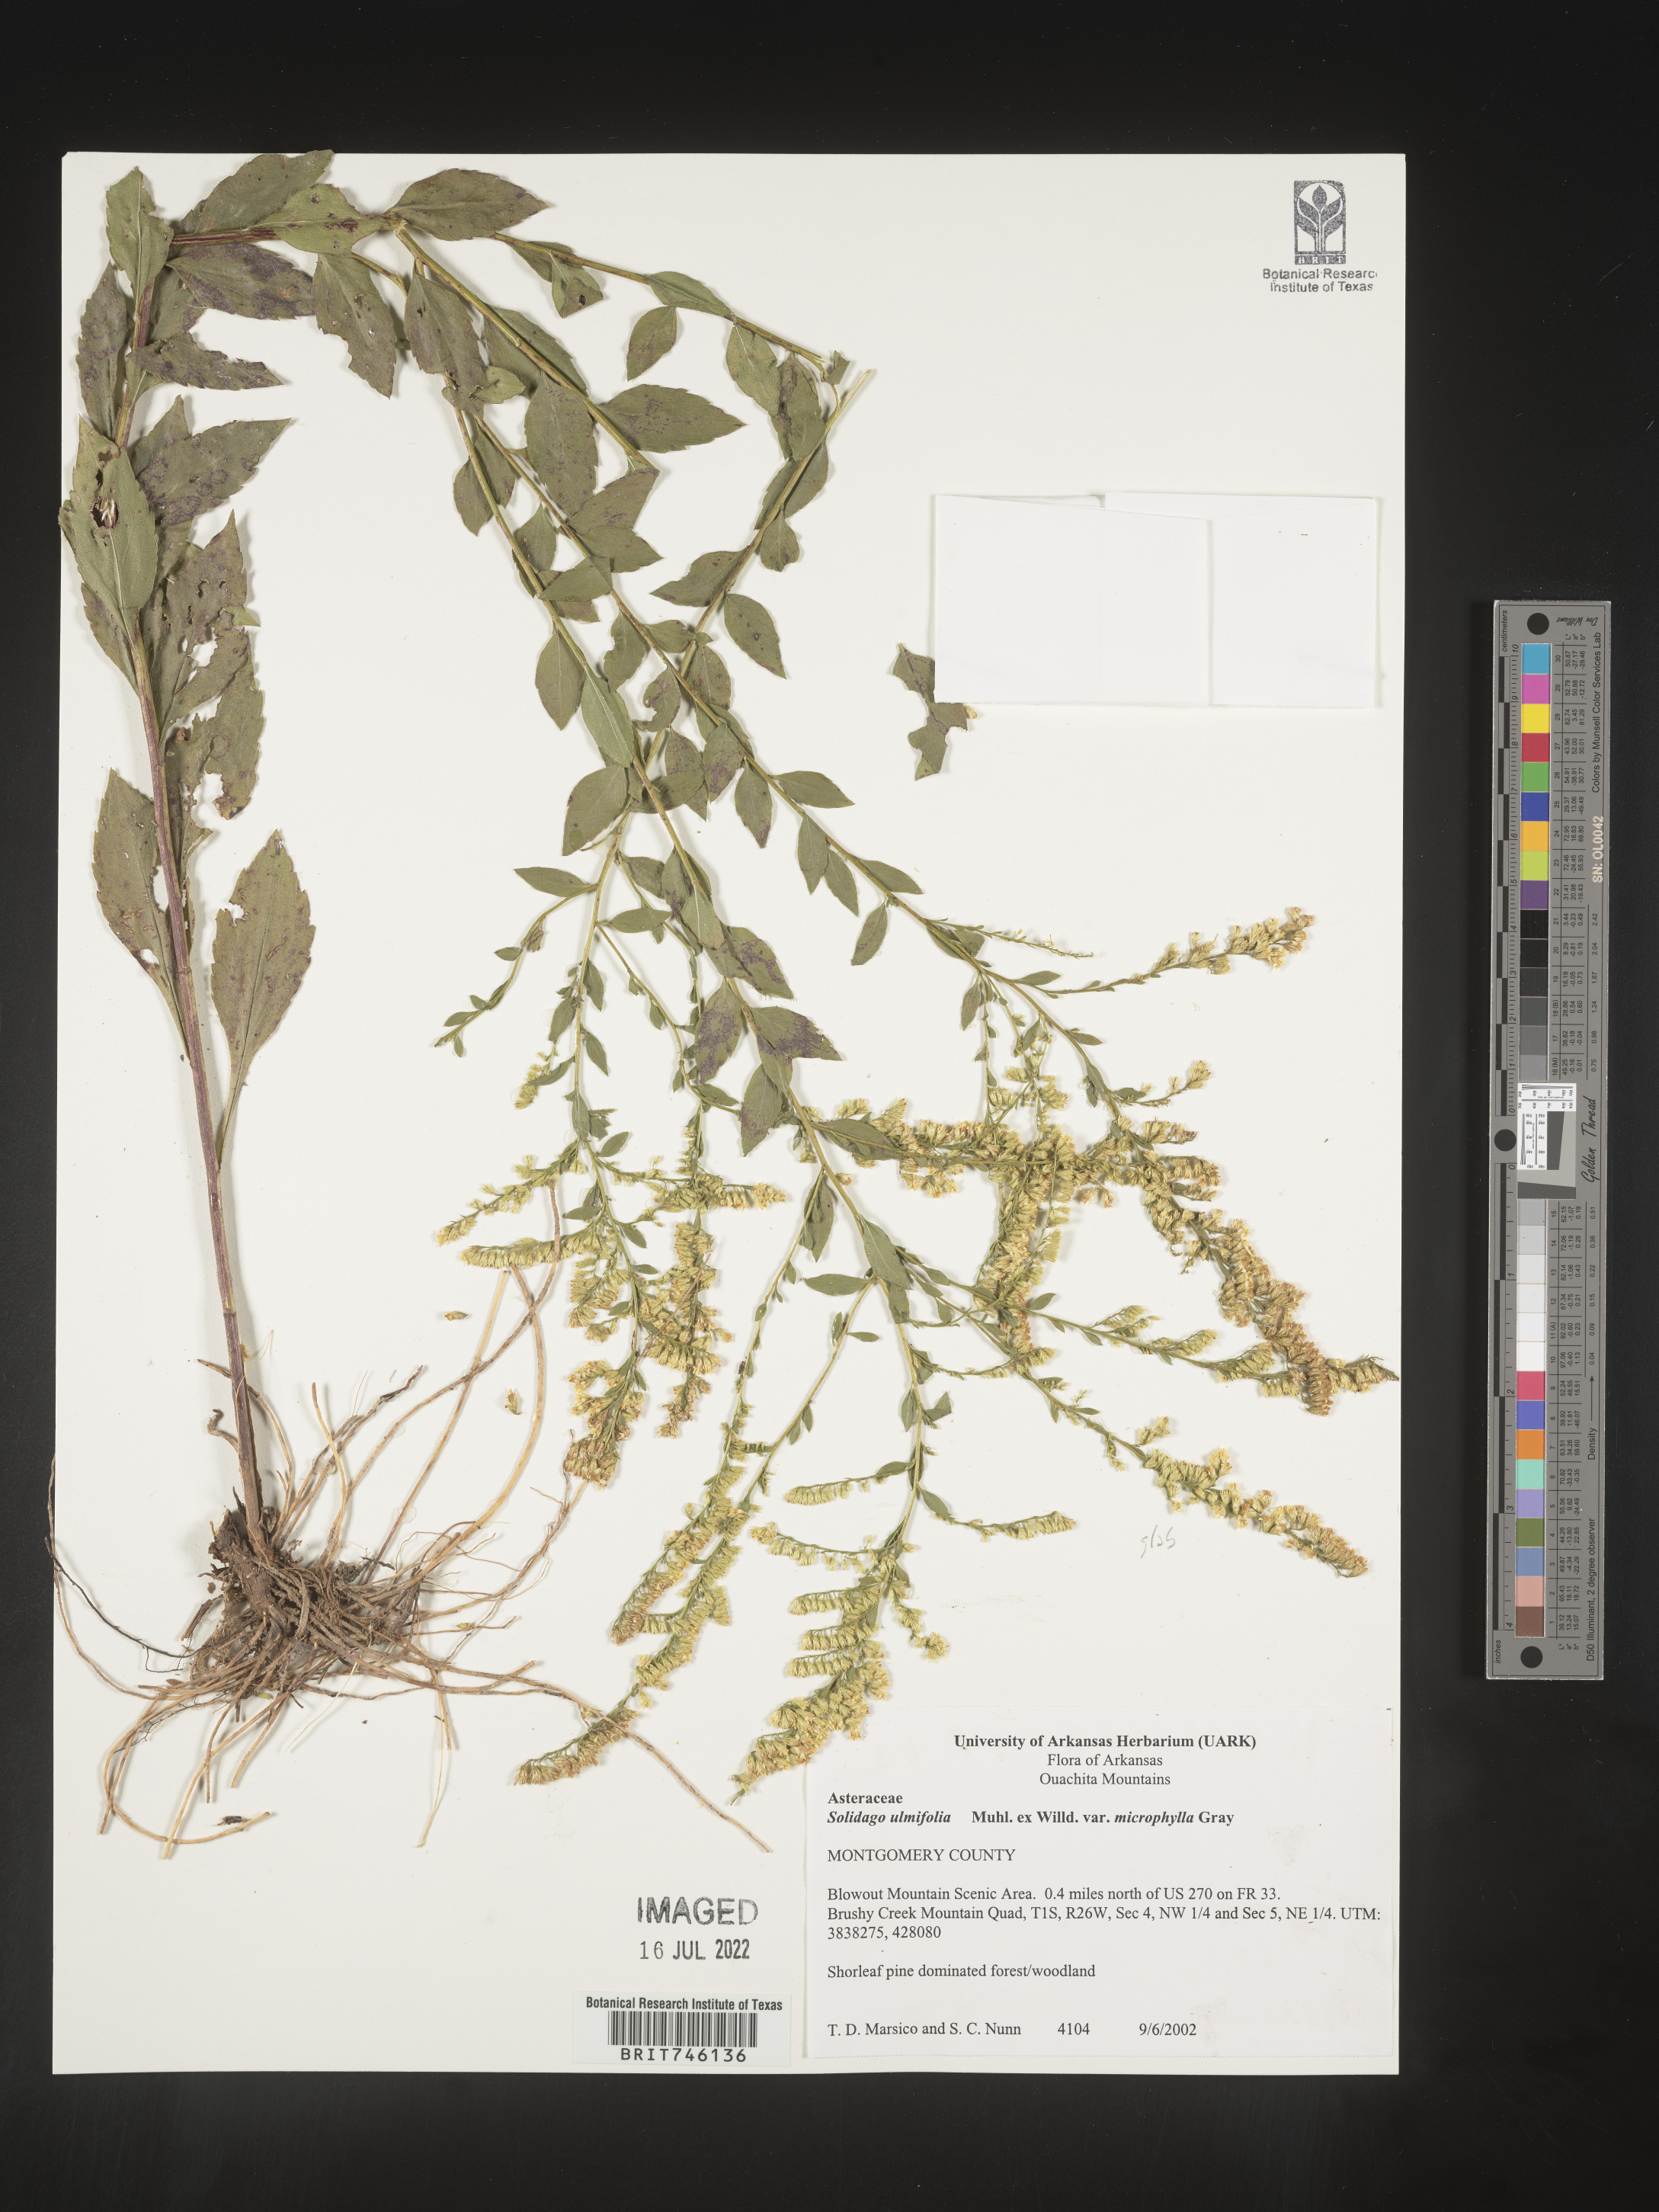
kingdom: Plantae
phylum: Tracheophyta
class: Magnoliopsida
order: Asterales
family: Asteraceae
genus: Solidago
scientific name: Solidago delicatula
